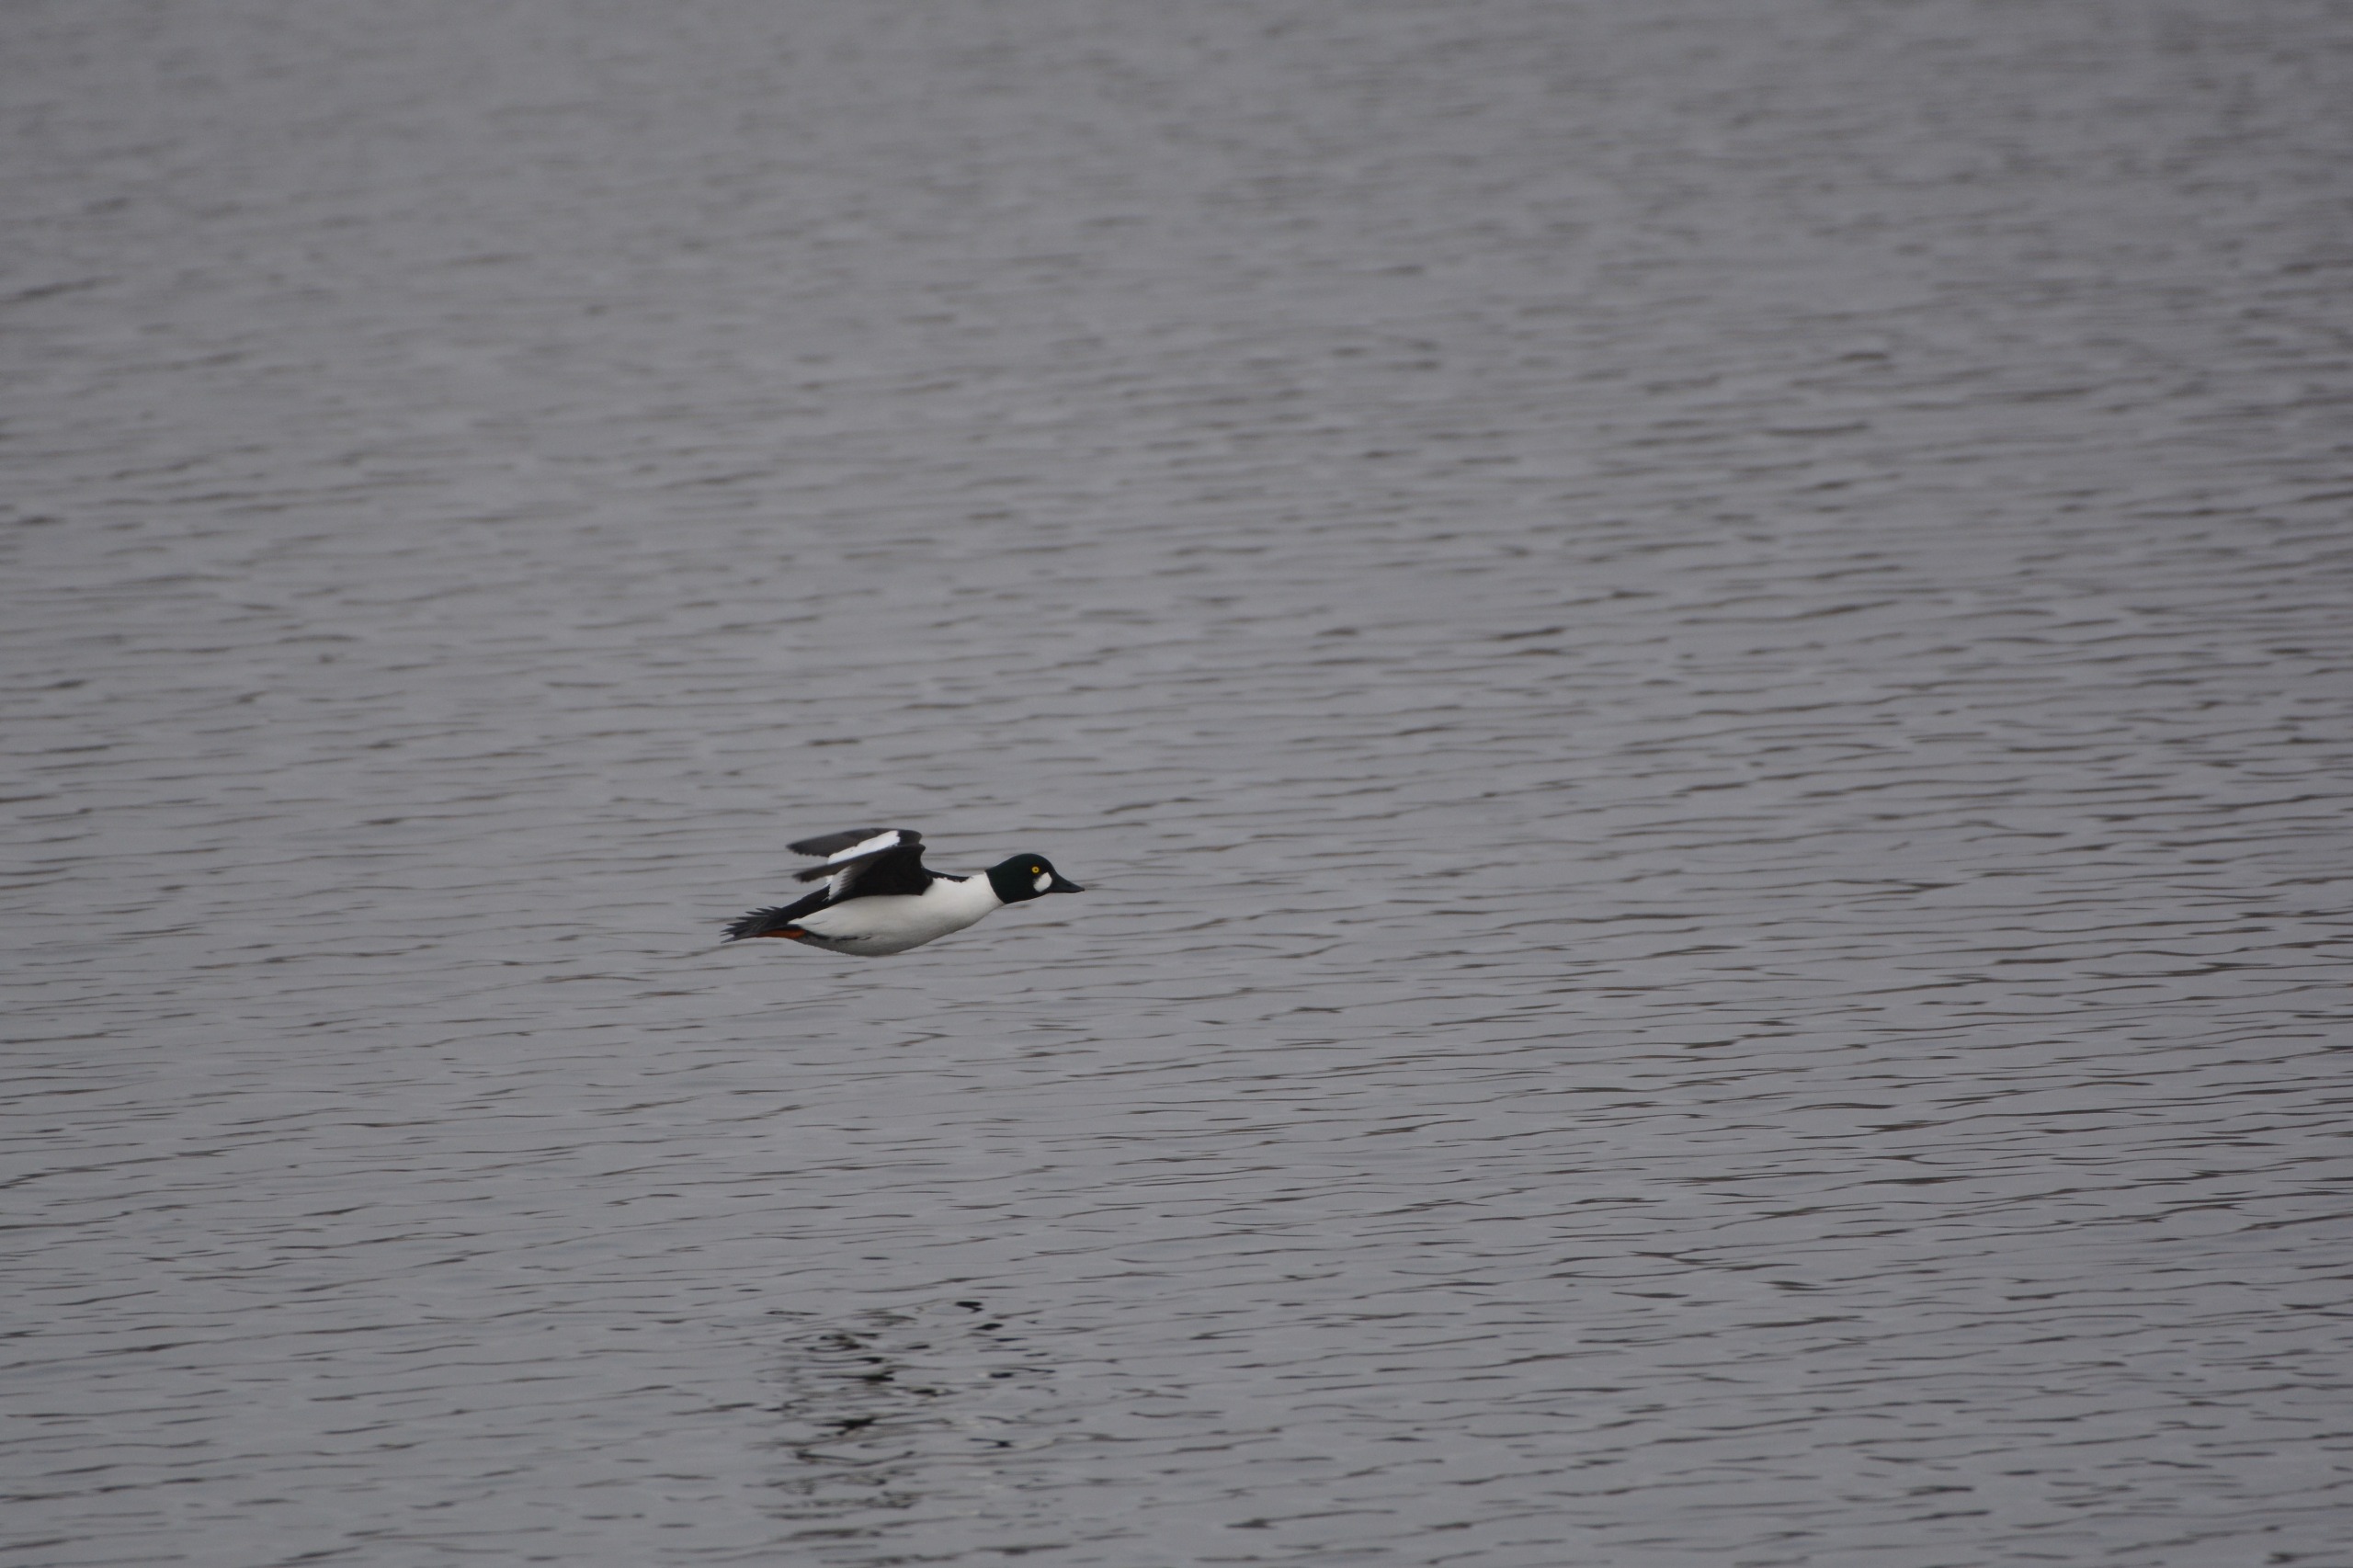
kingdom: Animalia
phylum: Chordata
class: Aves
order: Anseriformes
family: Anatidae
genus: Bucephala
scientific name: Bucephala clangula
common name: Hvinand
